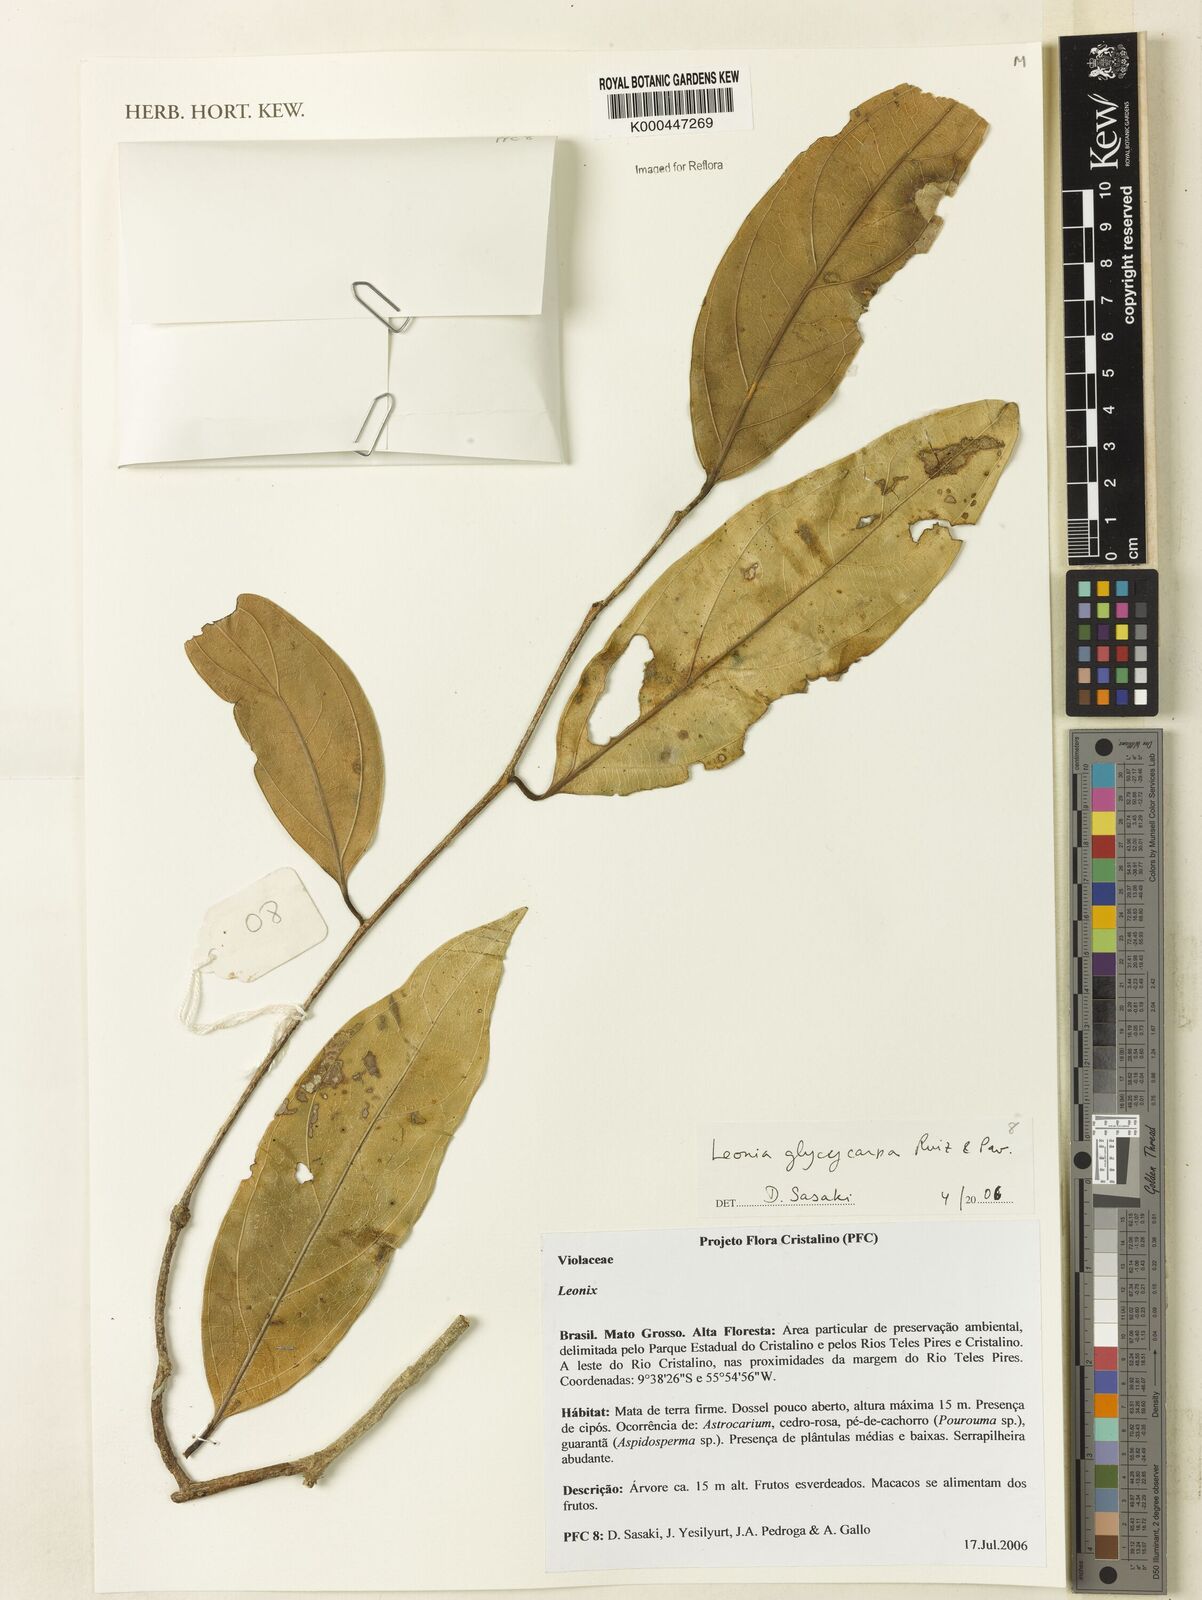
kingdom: Plantae
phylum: Tracheophyta
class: Magnoliopsida
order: Malpighiales
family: Violaceae
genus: Leonia
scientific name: Leonia glycycarpa
